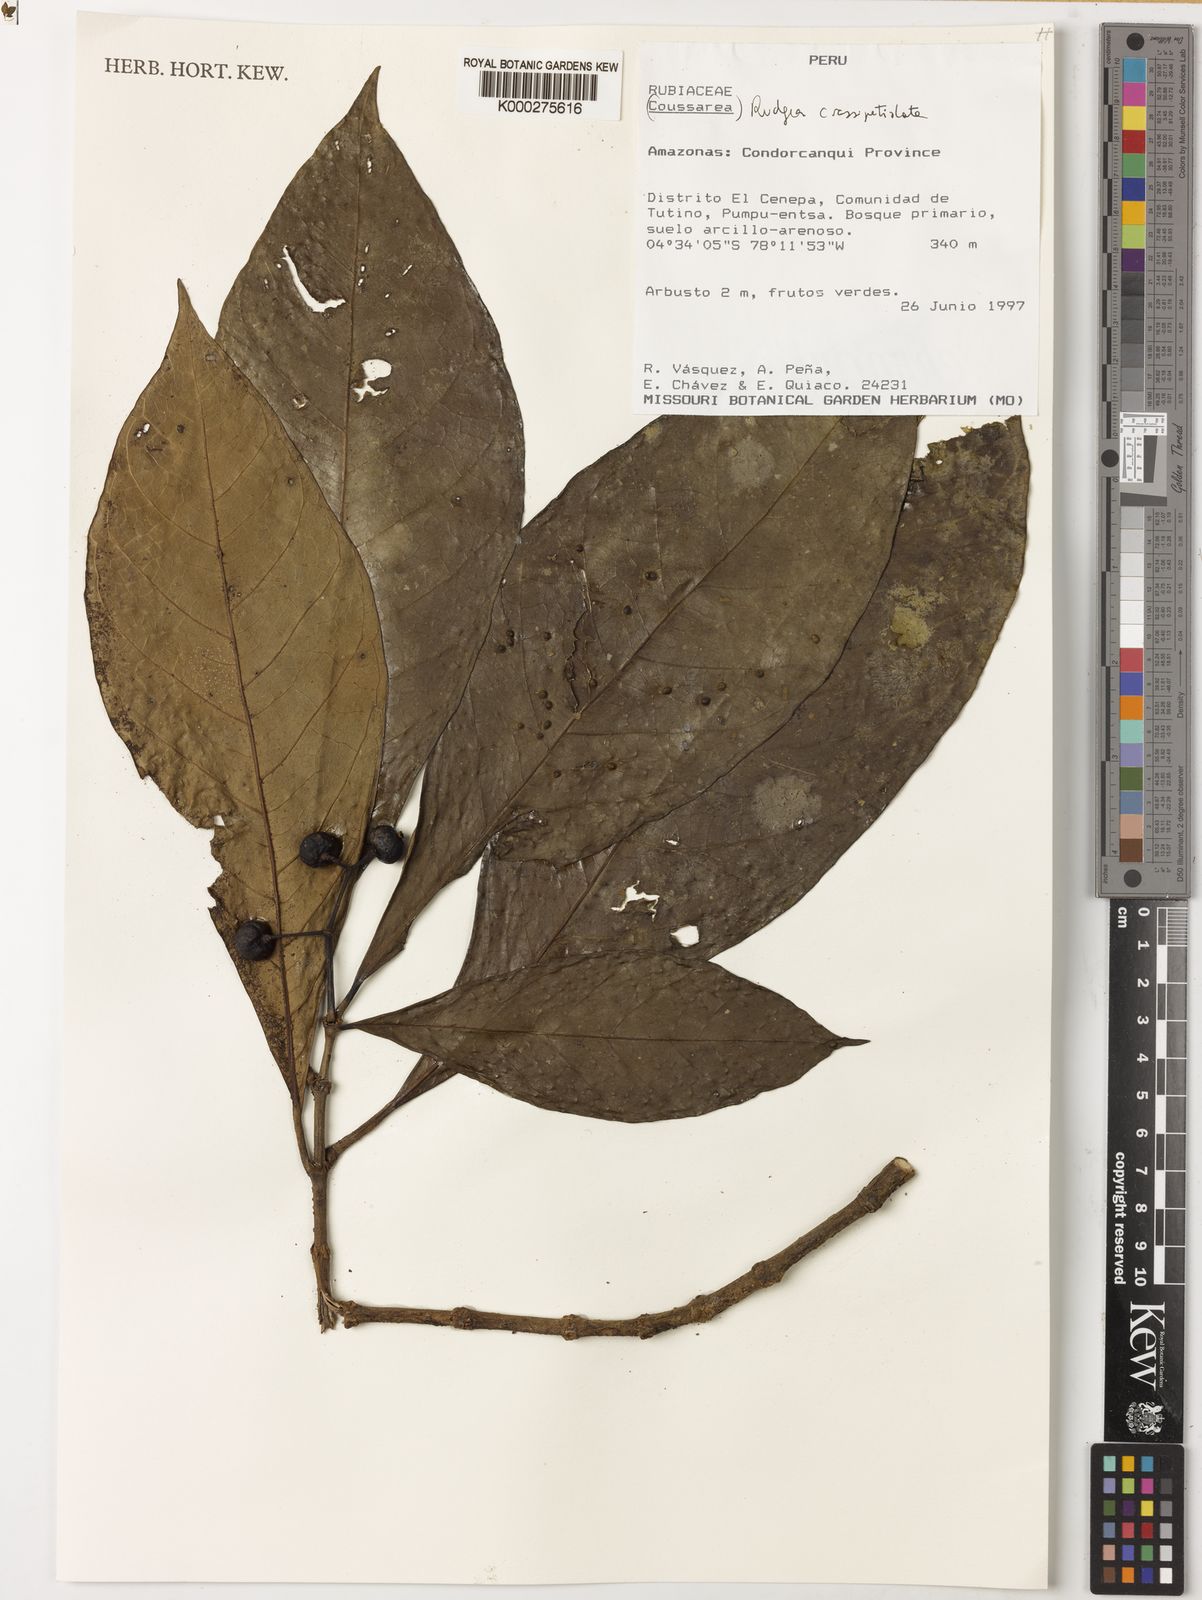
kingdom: Plantae
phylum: Tracheophyta
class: Magnoliopsida
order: Gentianales
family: Rubiaceae
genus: Rudgea
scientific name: Rudgea crassipetiolata
